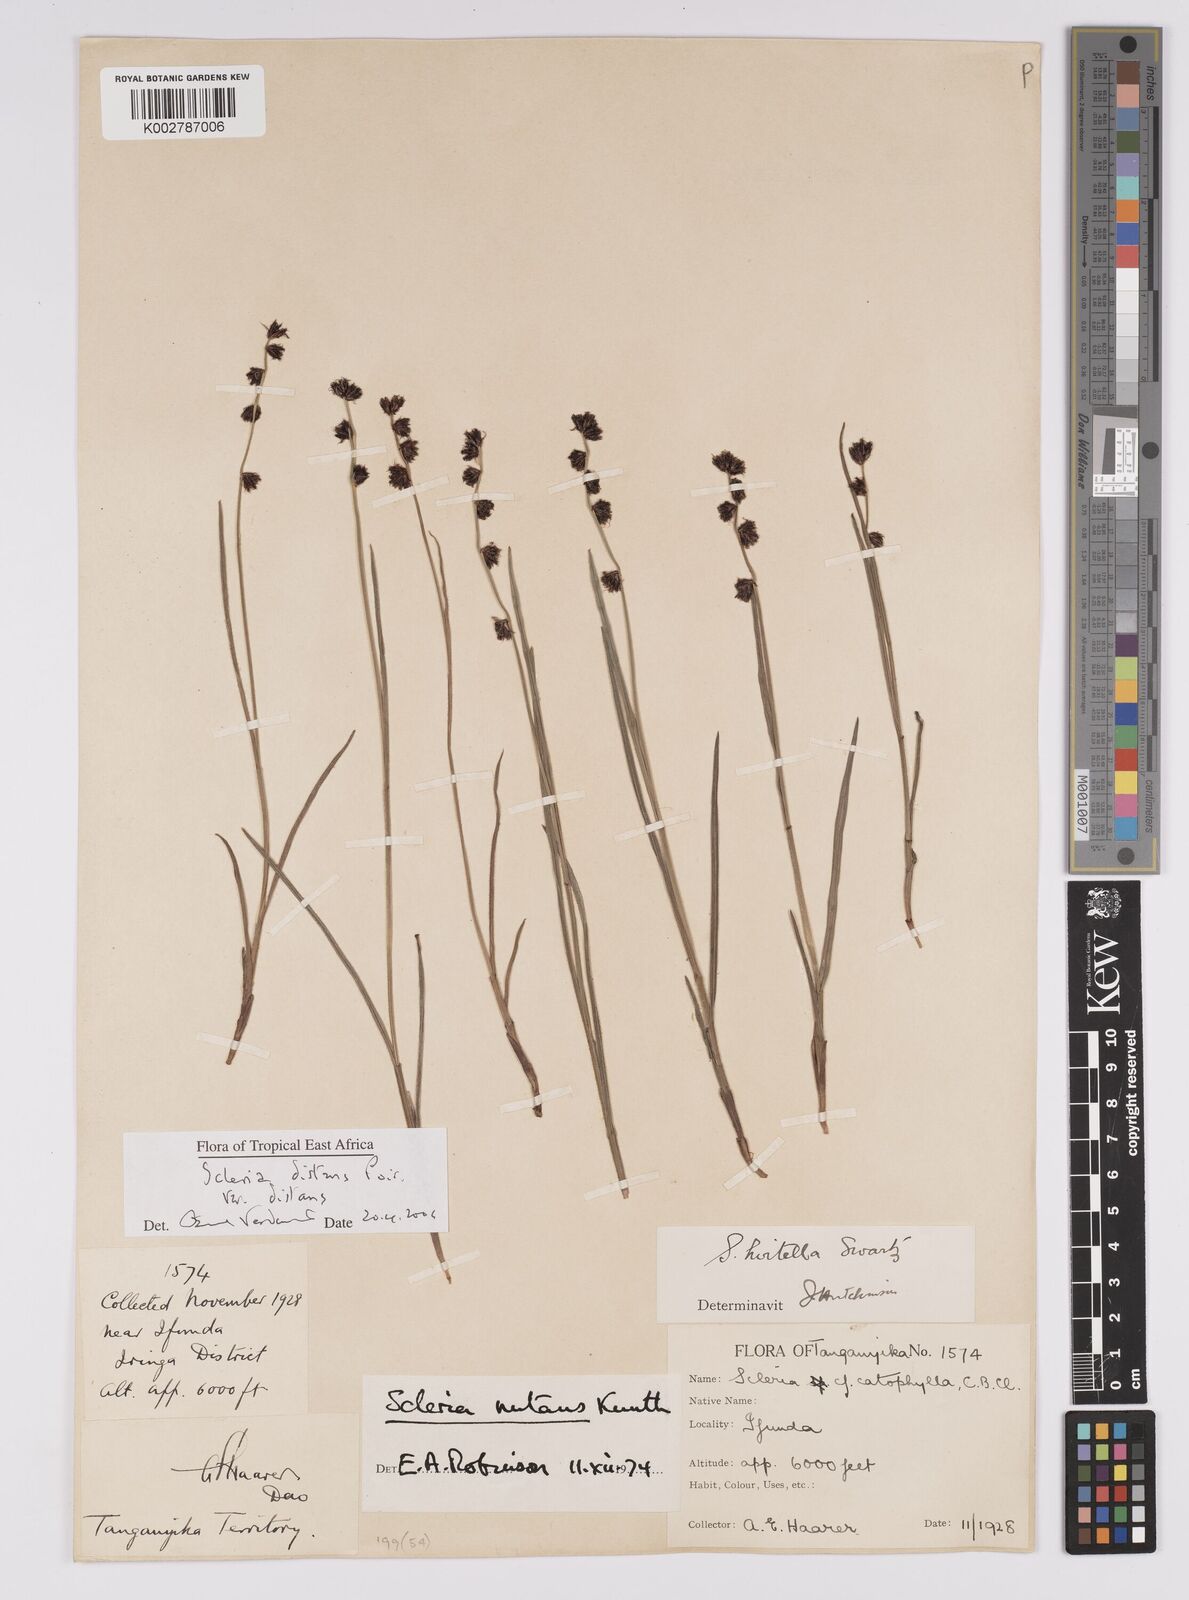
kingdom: Plantae
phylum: Tracheophyta
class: Liliopsida
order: Poales
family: Cyperaceae
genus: Scleria
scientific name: Scleria distans
